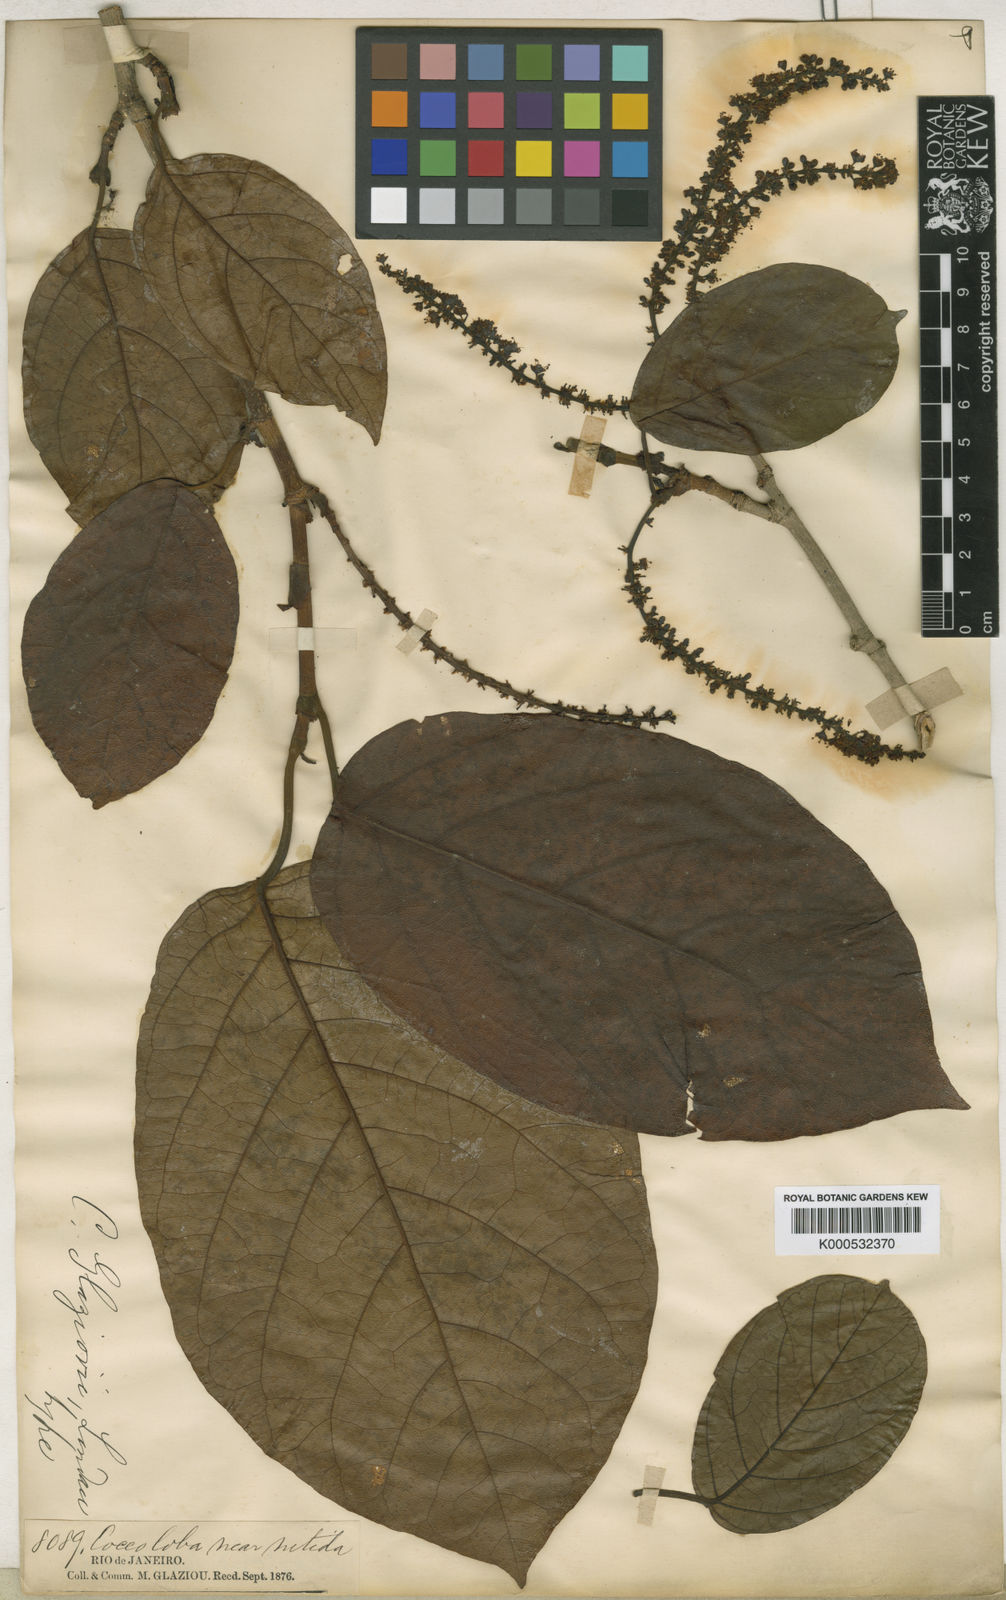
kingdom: Plantae
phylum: Tracheophyta
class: Magnoliopsida
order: Caryophyllales
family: Polygonaceae
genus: Coccoloba
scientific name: Coccoloba glaziovii
